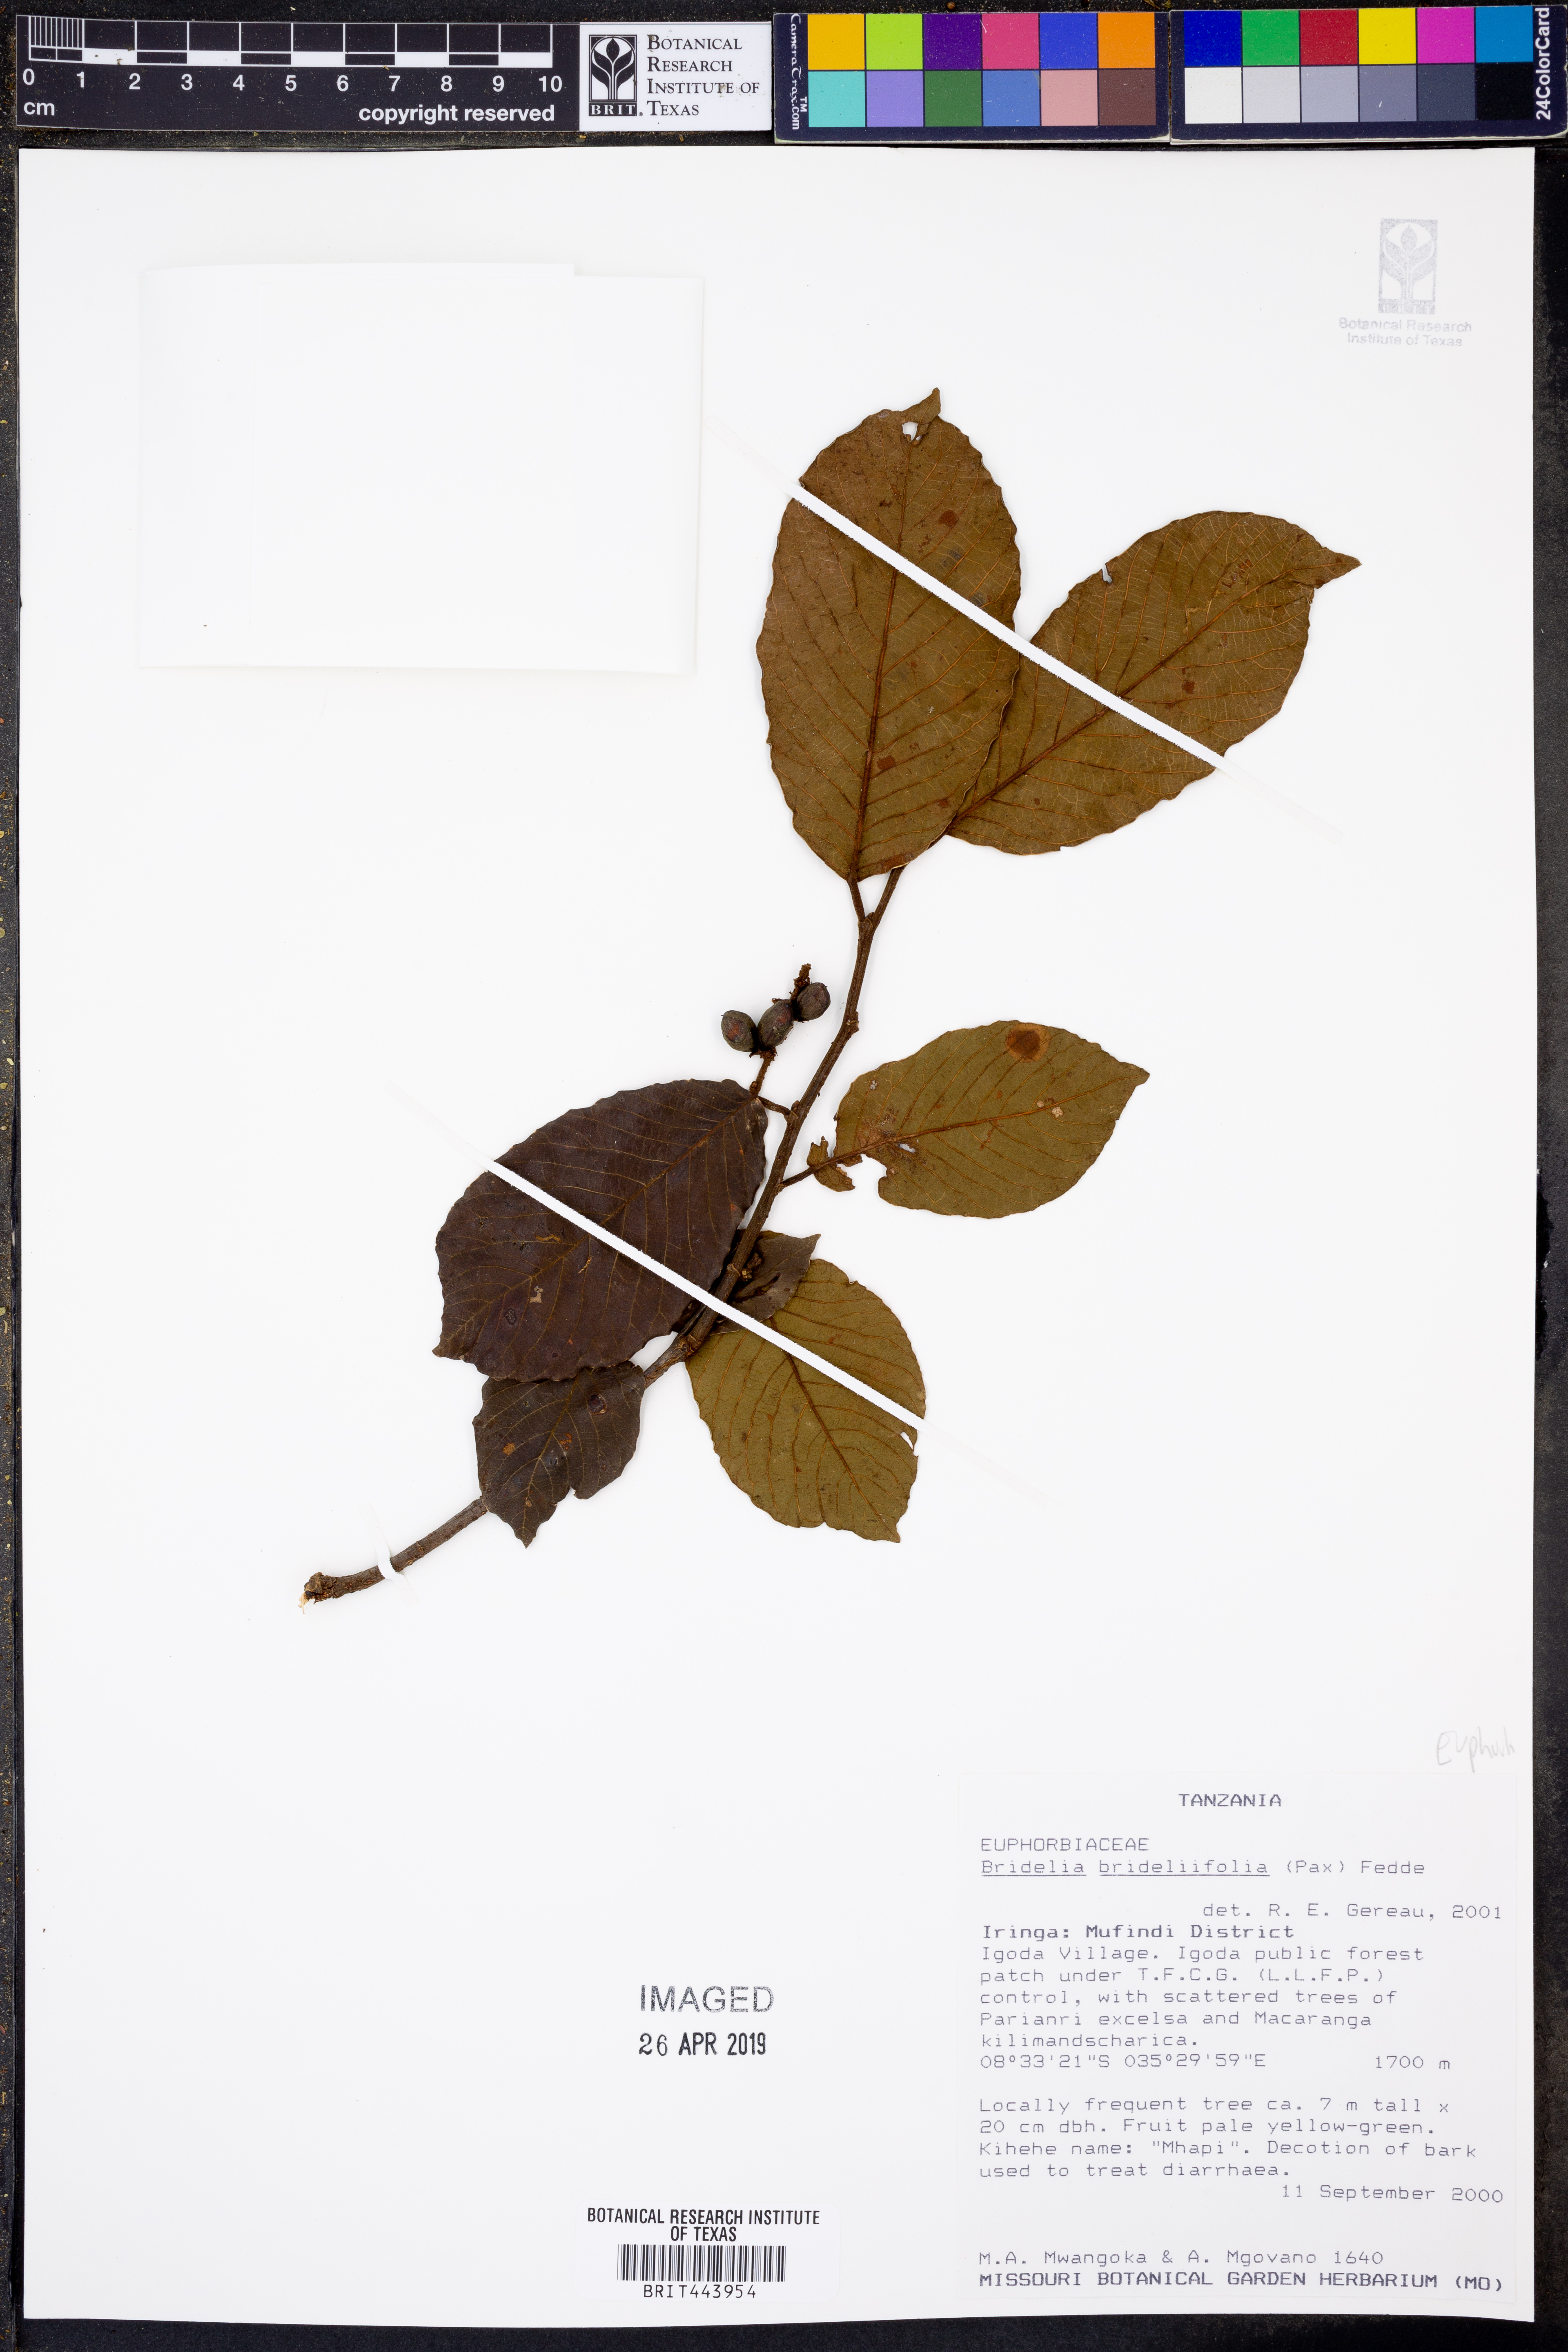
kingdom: Plantae
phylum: Tracheophyta
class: Magnoliopsida
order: Malpighiales
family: Phyllanthaceae
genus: Bridelia
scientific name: Bridelia brideliifolia
